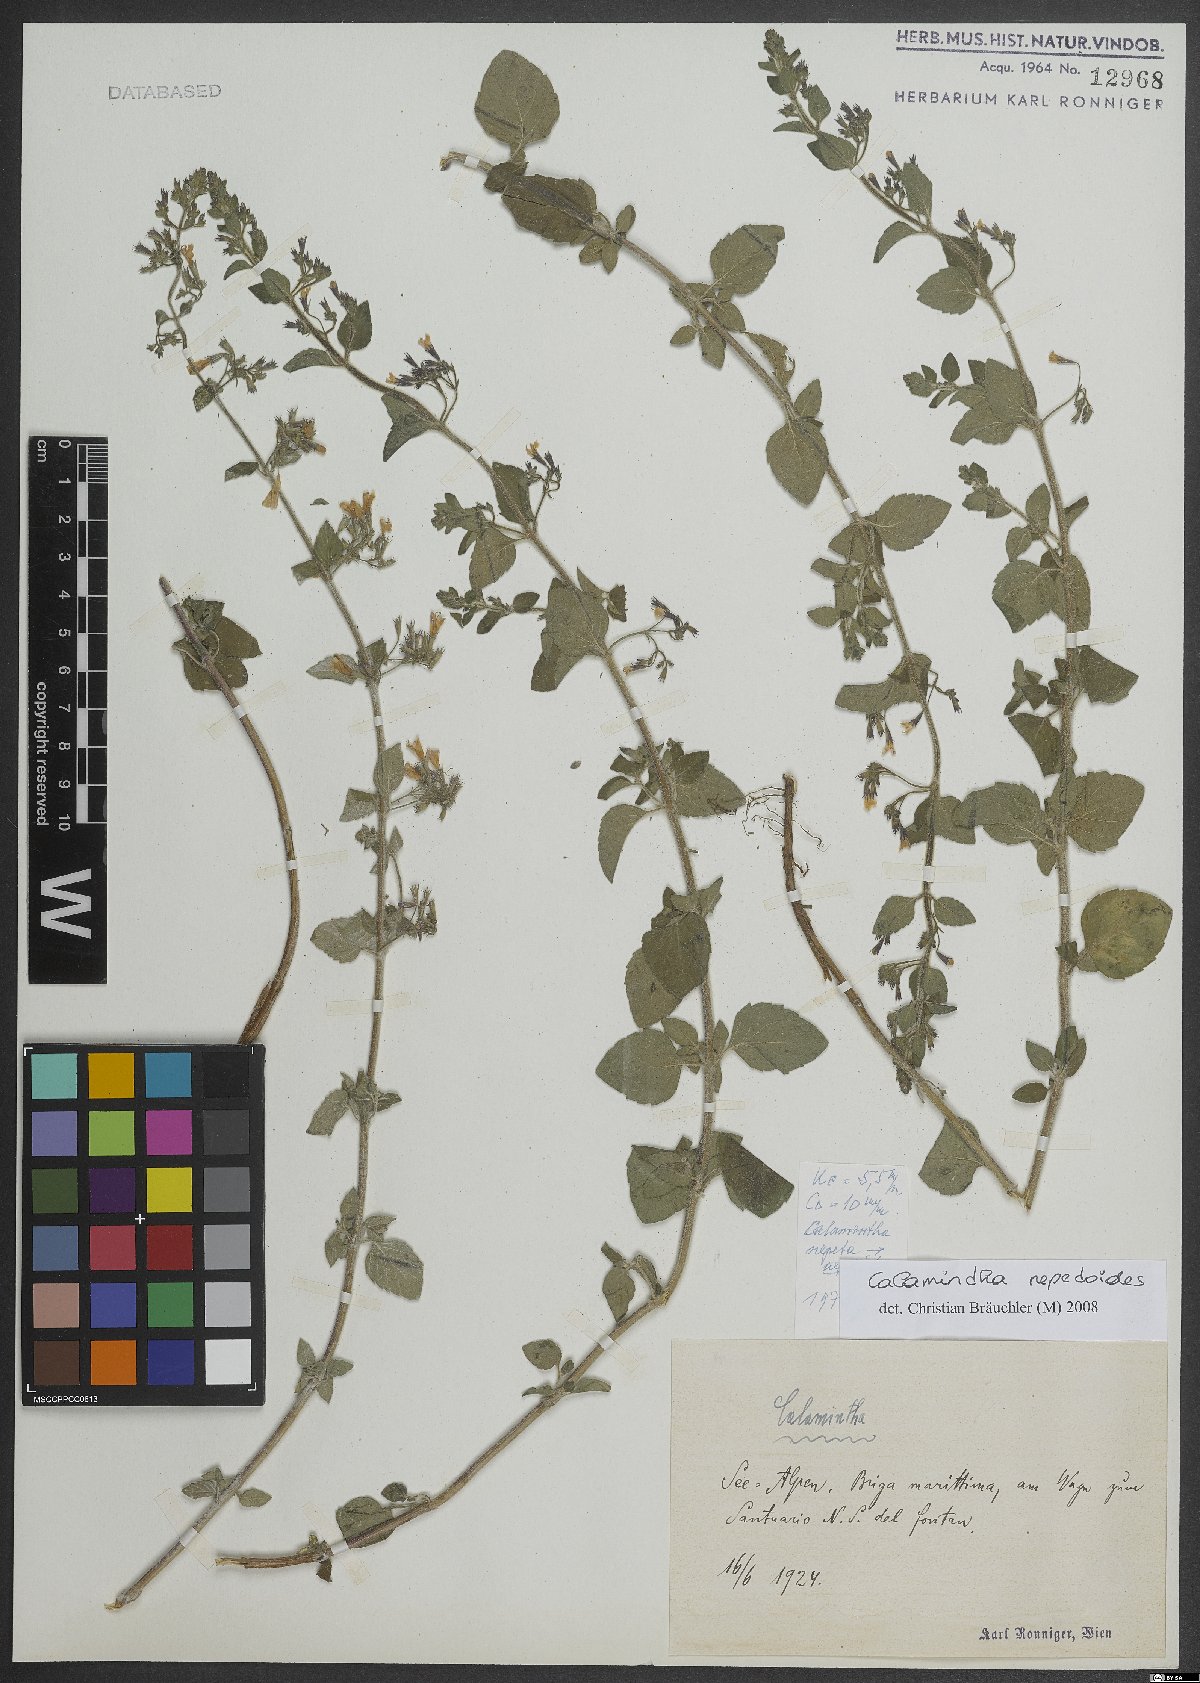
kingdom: Plantae
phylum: Tracheophyta
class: Magnoliopsida
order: Lamiales
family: Lamiaceae
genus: Clinopodium
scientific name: Clinopodium nepeta
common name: Lesser calamint
